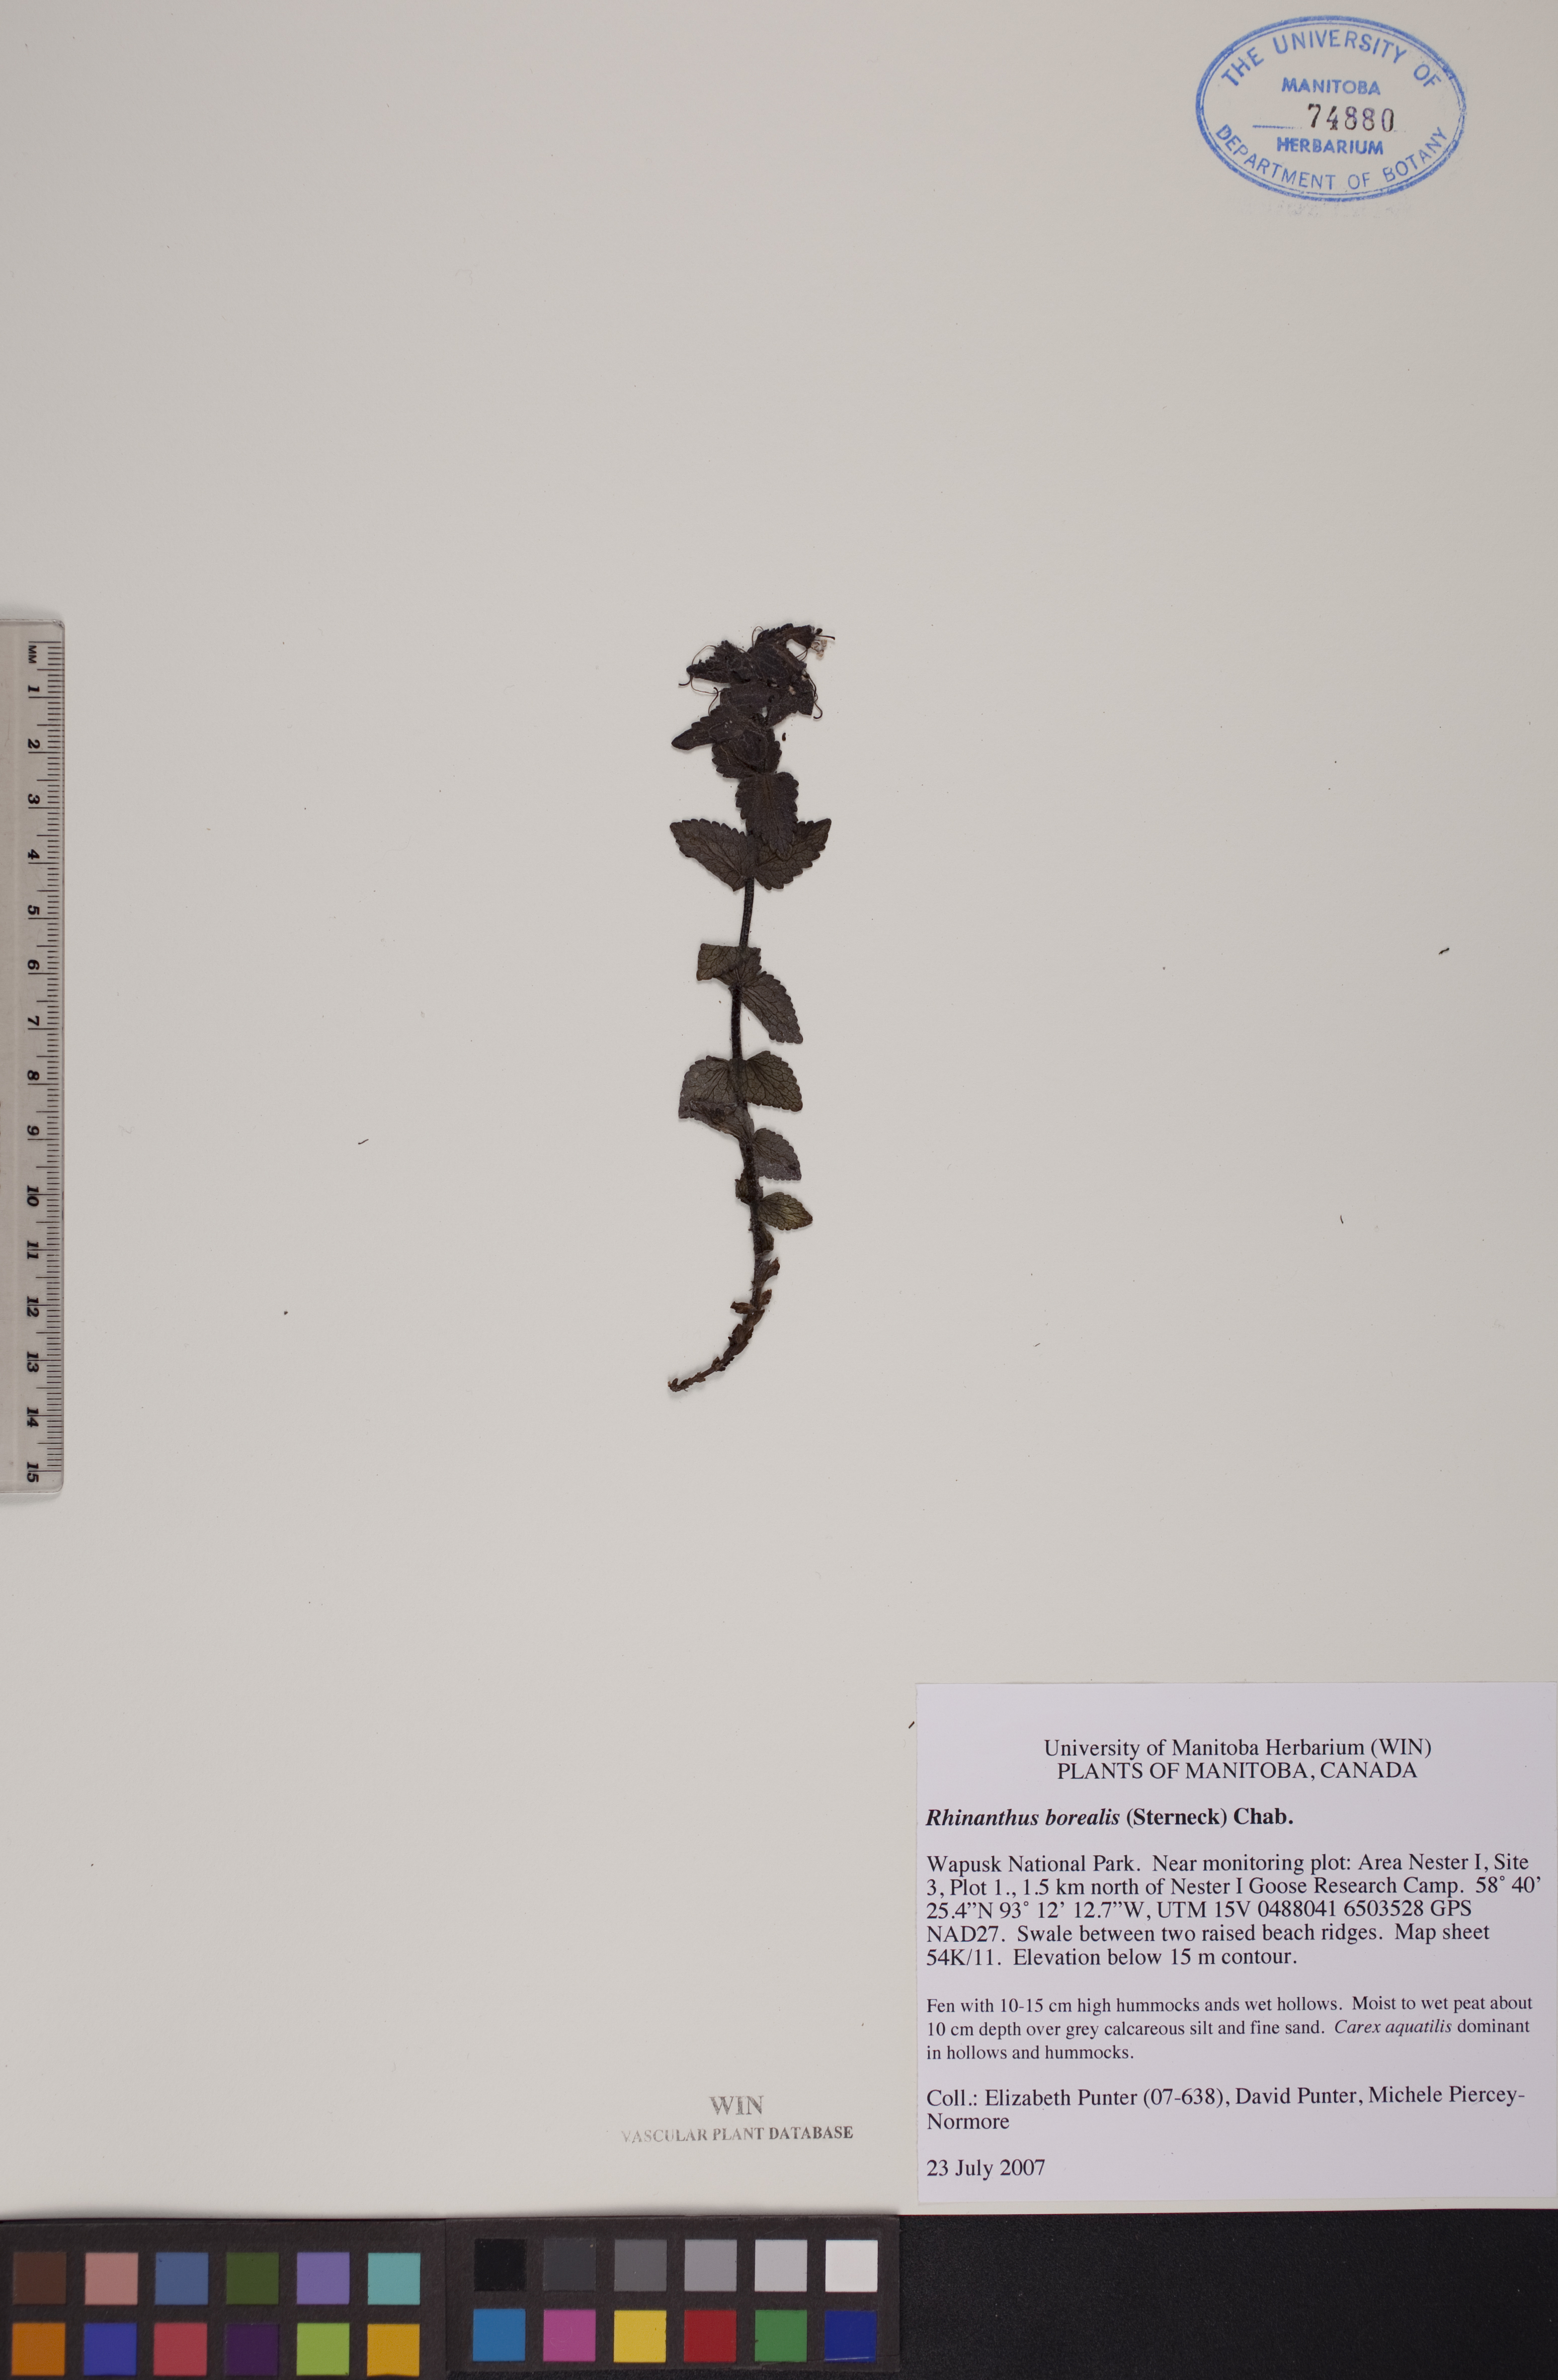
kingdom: Plantae
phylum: Tracheophyta
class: Magnoliopsida
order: Lamiales
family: Orobanchaceae
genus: Rhinanthus
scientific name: Rhinanthus groenlandicus
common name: Little yellow rattle
